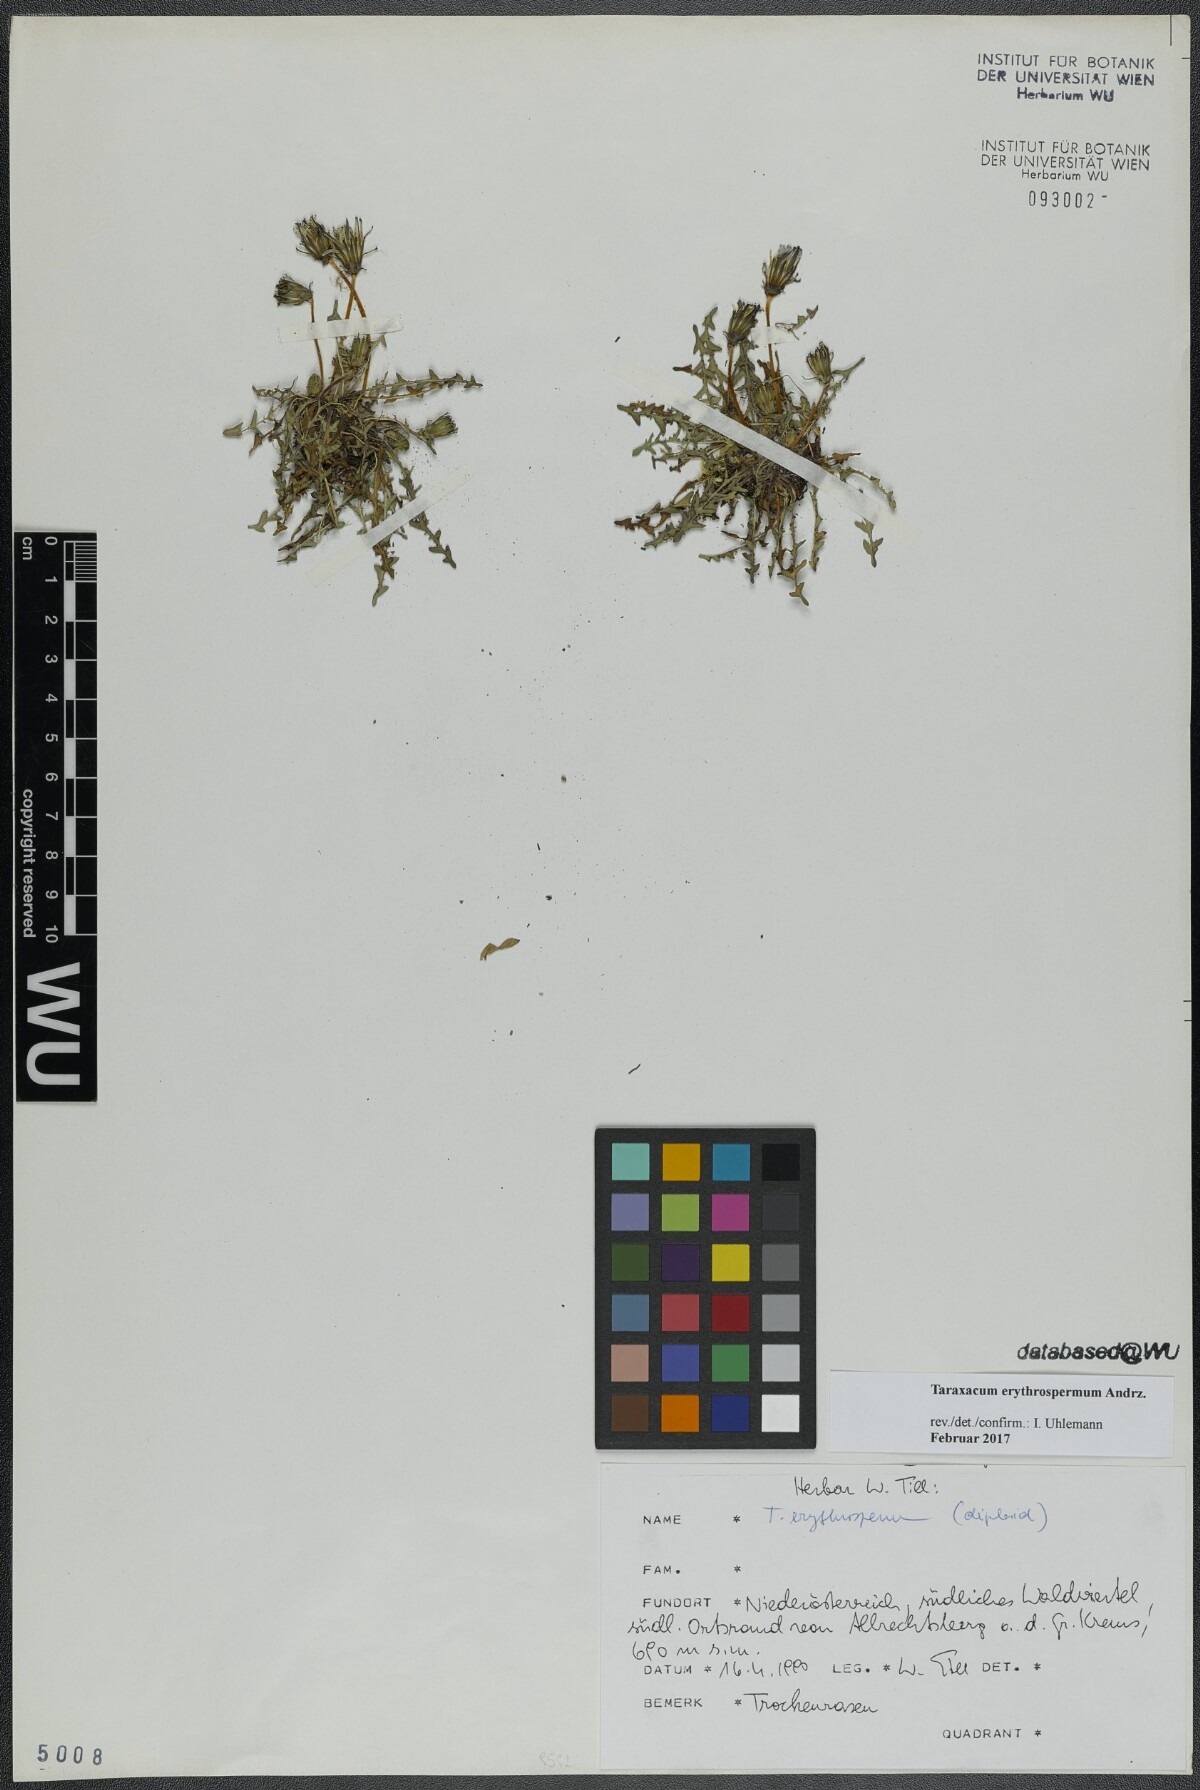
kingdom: Plantae
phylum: Tracheophyta
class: Magnoliopsida
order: Asterales
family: Asteraceae
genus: Taraxacum
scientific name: Taraxacum erythrospermum
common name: Rock dandelion
